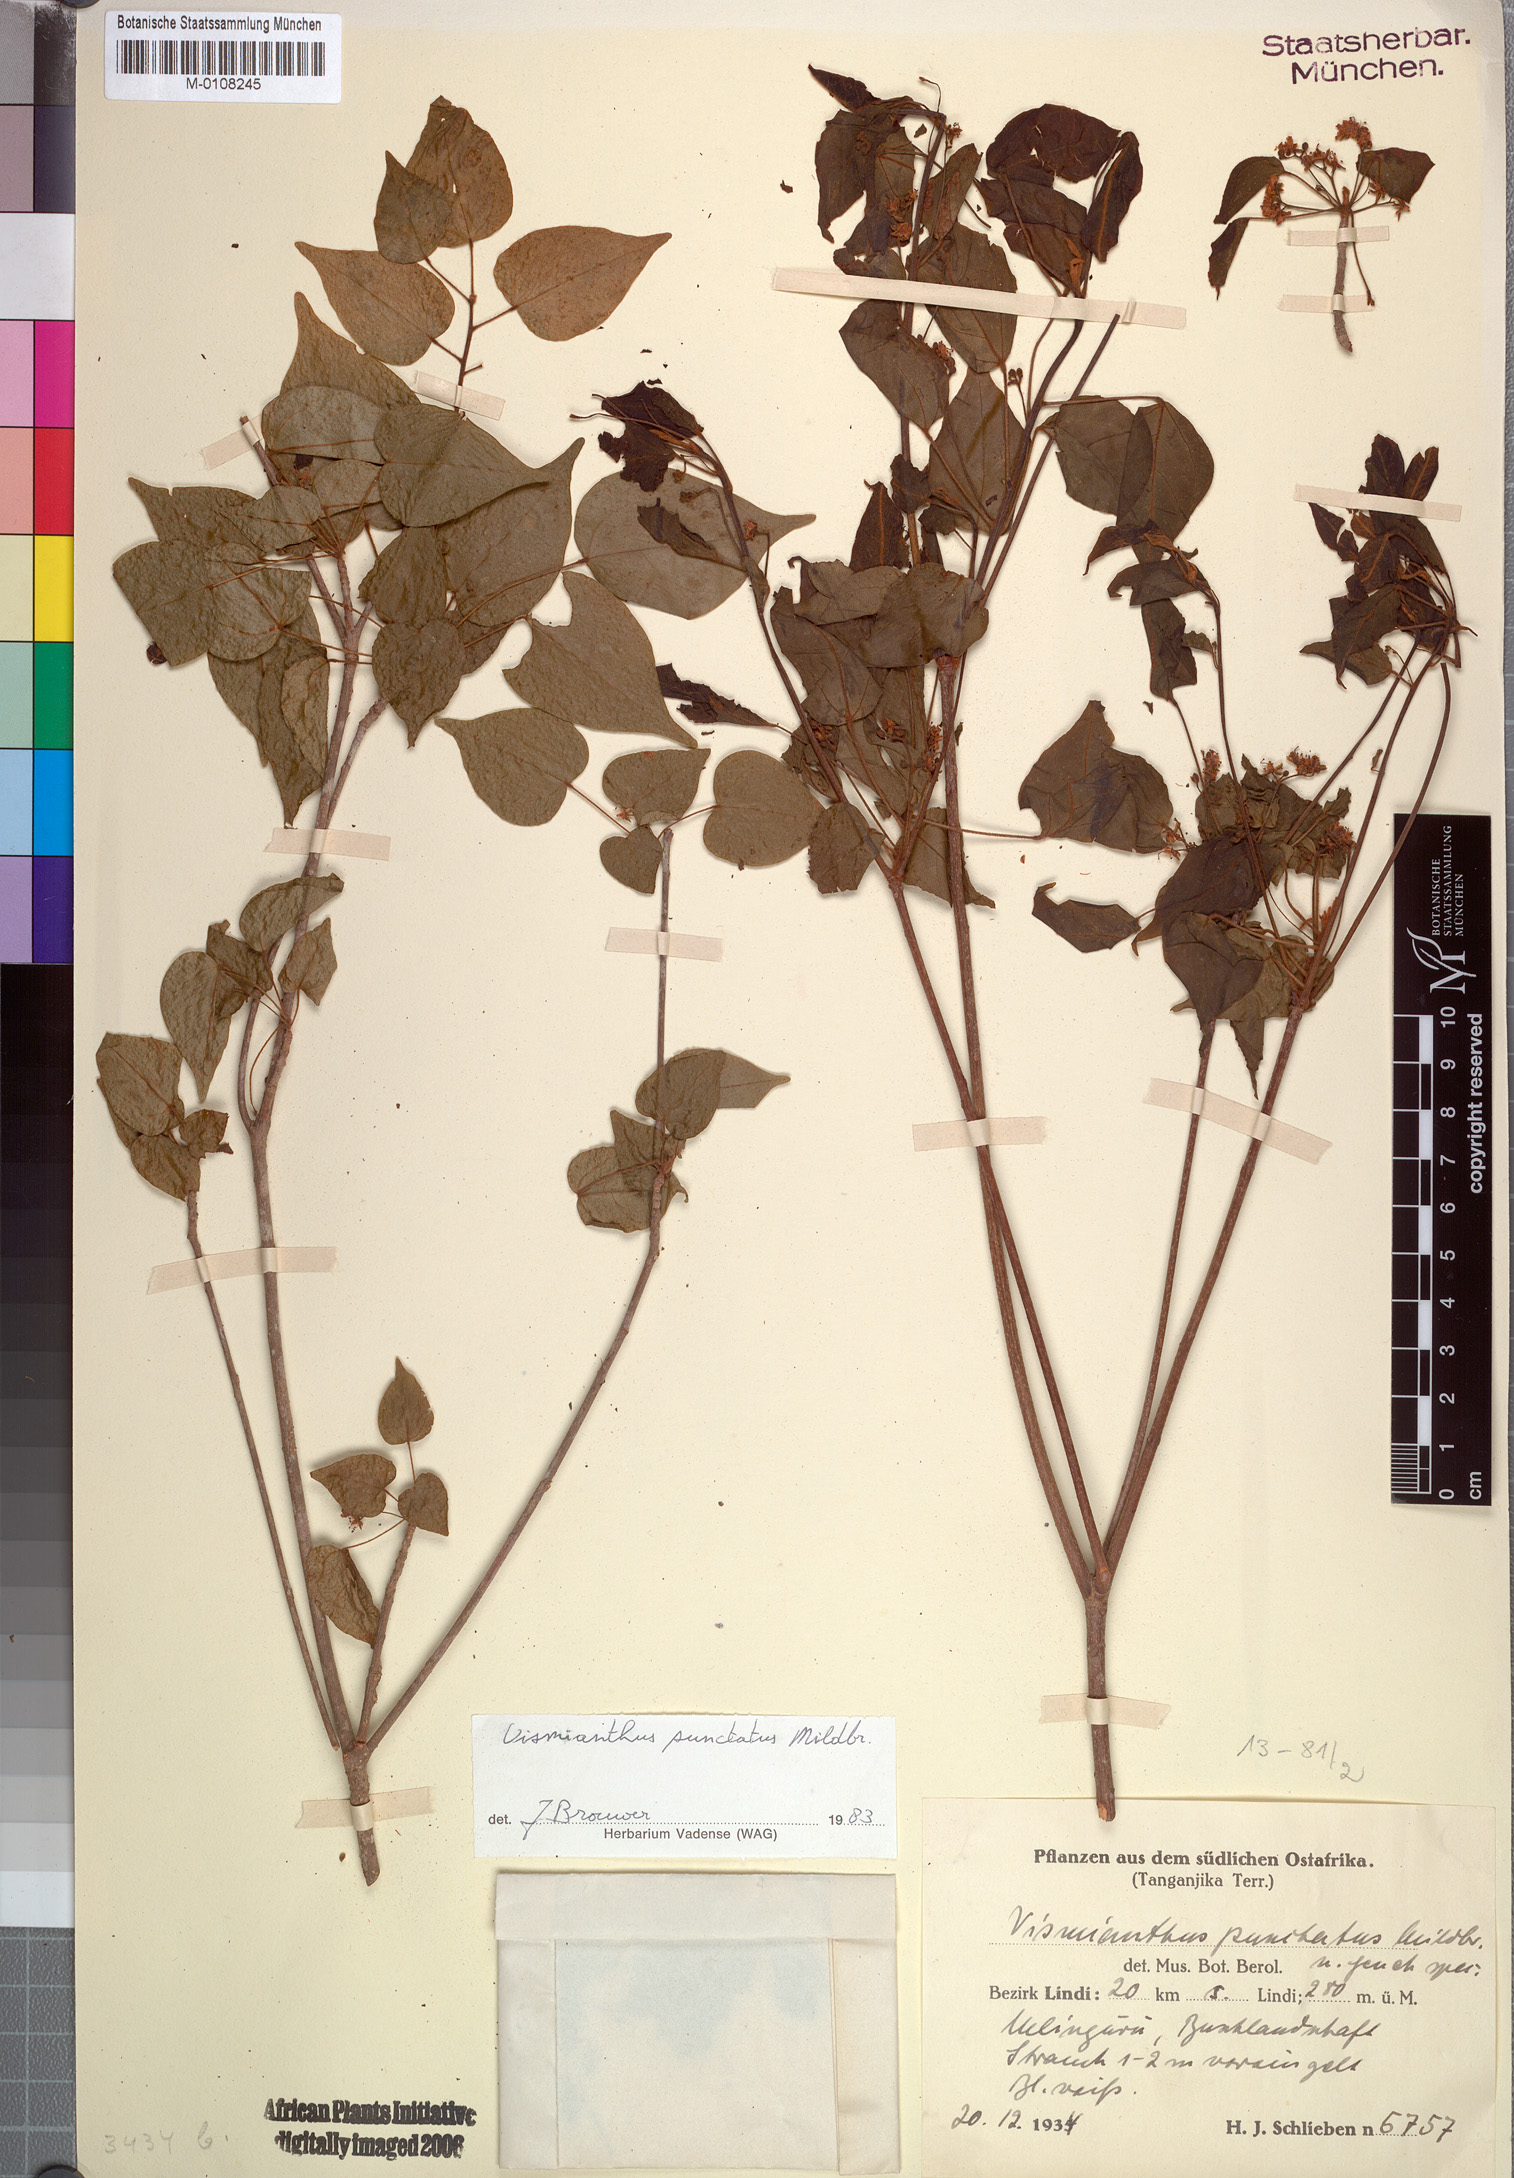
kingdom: Plantae
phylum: Tracheophyta
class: Magnoliopsida
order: Oxalidales
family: Connaraceae
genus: Vismianthus
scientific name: Vismianthus punctatus
